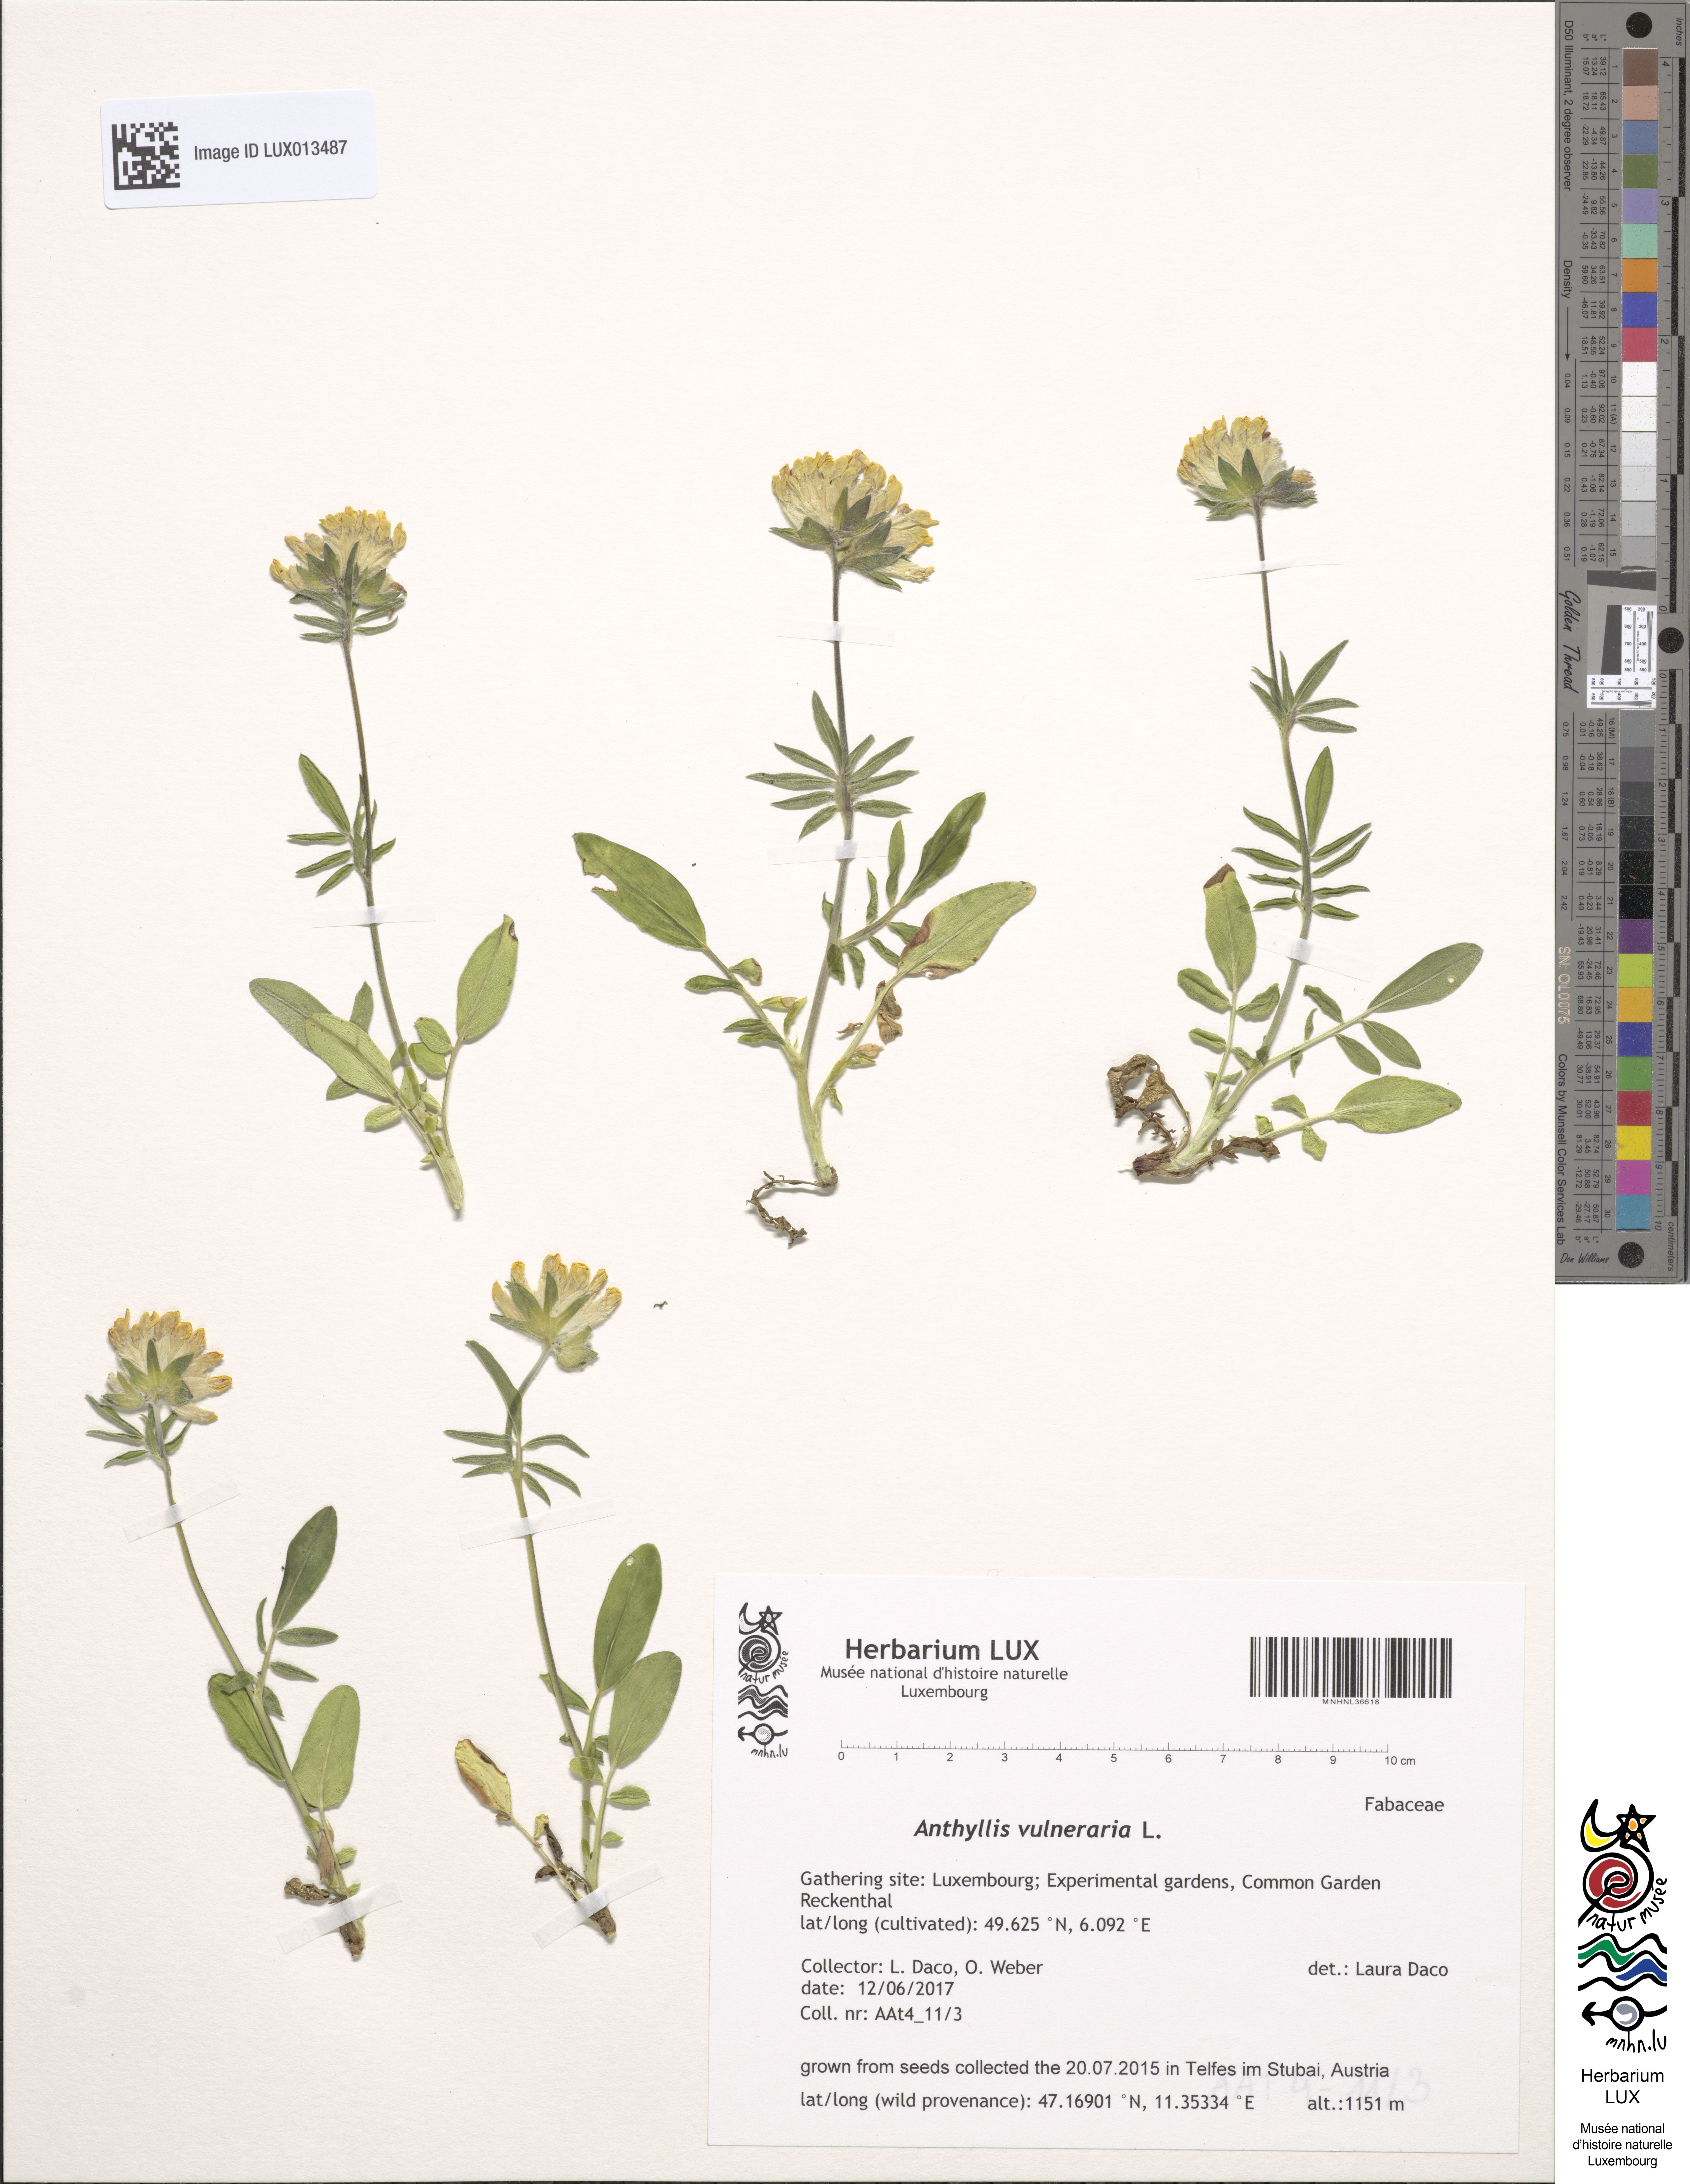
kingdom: Plantae
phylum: Tracheophyta
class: Magnoliopsida
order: Fabales
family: Fabaceae
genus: Anthyllis
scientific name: Anthyllis vulneraria
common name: Kidney vetch
